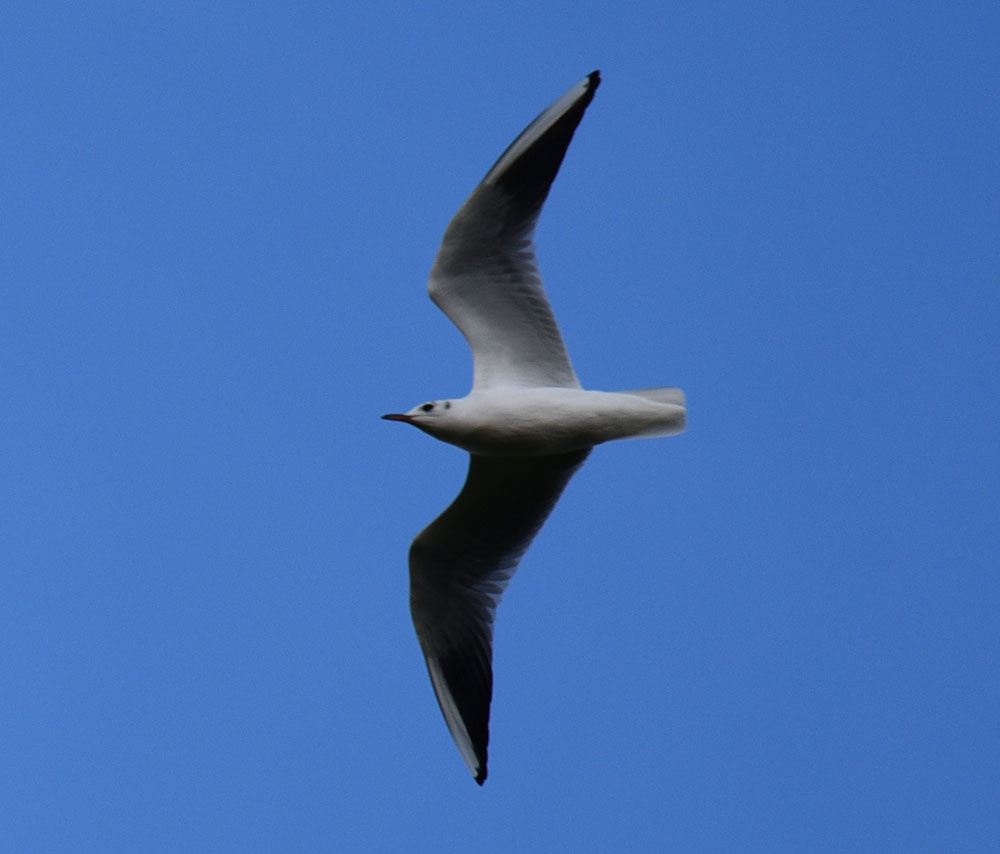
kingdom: Animalia
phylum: Chordata
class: Aves
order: Charadriiformes
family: Laridae
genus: Chroicocephalus
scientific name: Chroicocephalus ridibundus
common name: Black-headed gull
